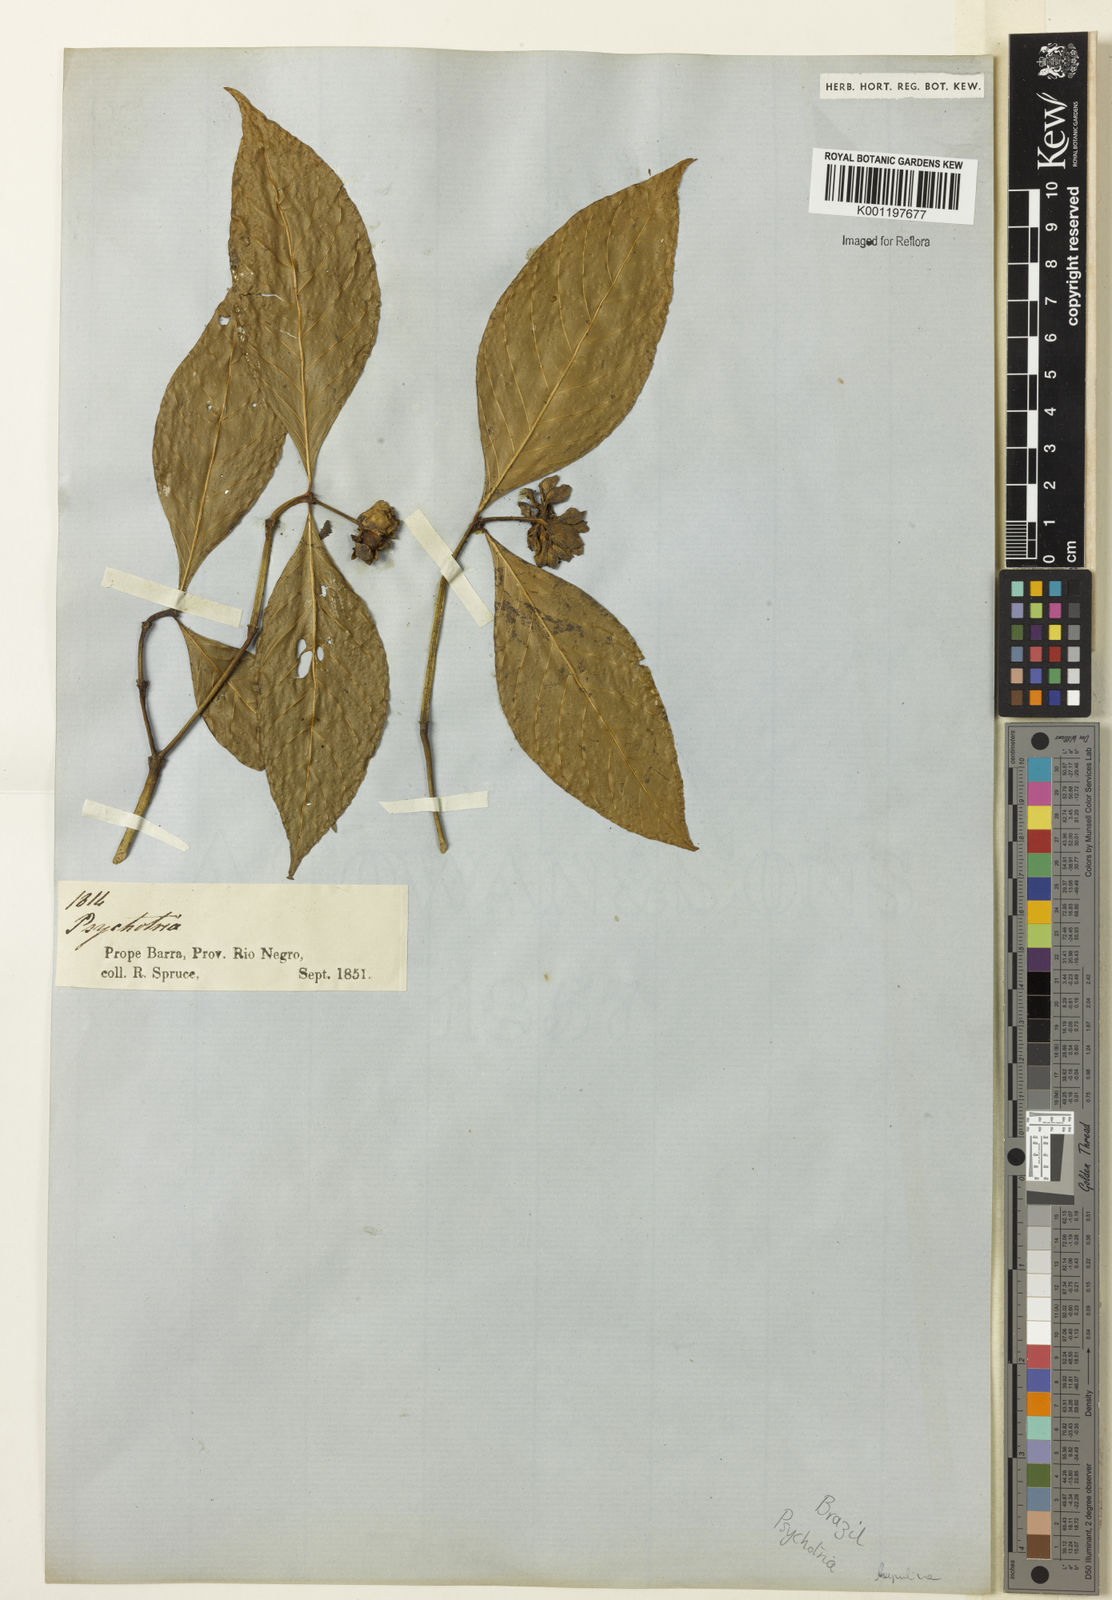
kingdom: Plantae
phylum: Tracheophyta
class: Magnoliopsida
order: Gentianales
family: Rubiaceae
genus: Palicourea
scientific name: Palicourea justiciifolia
